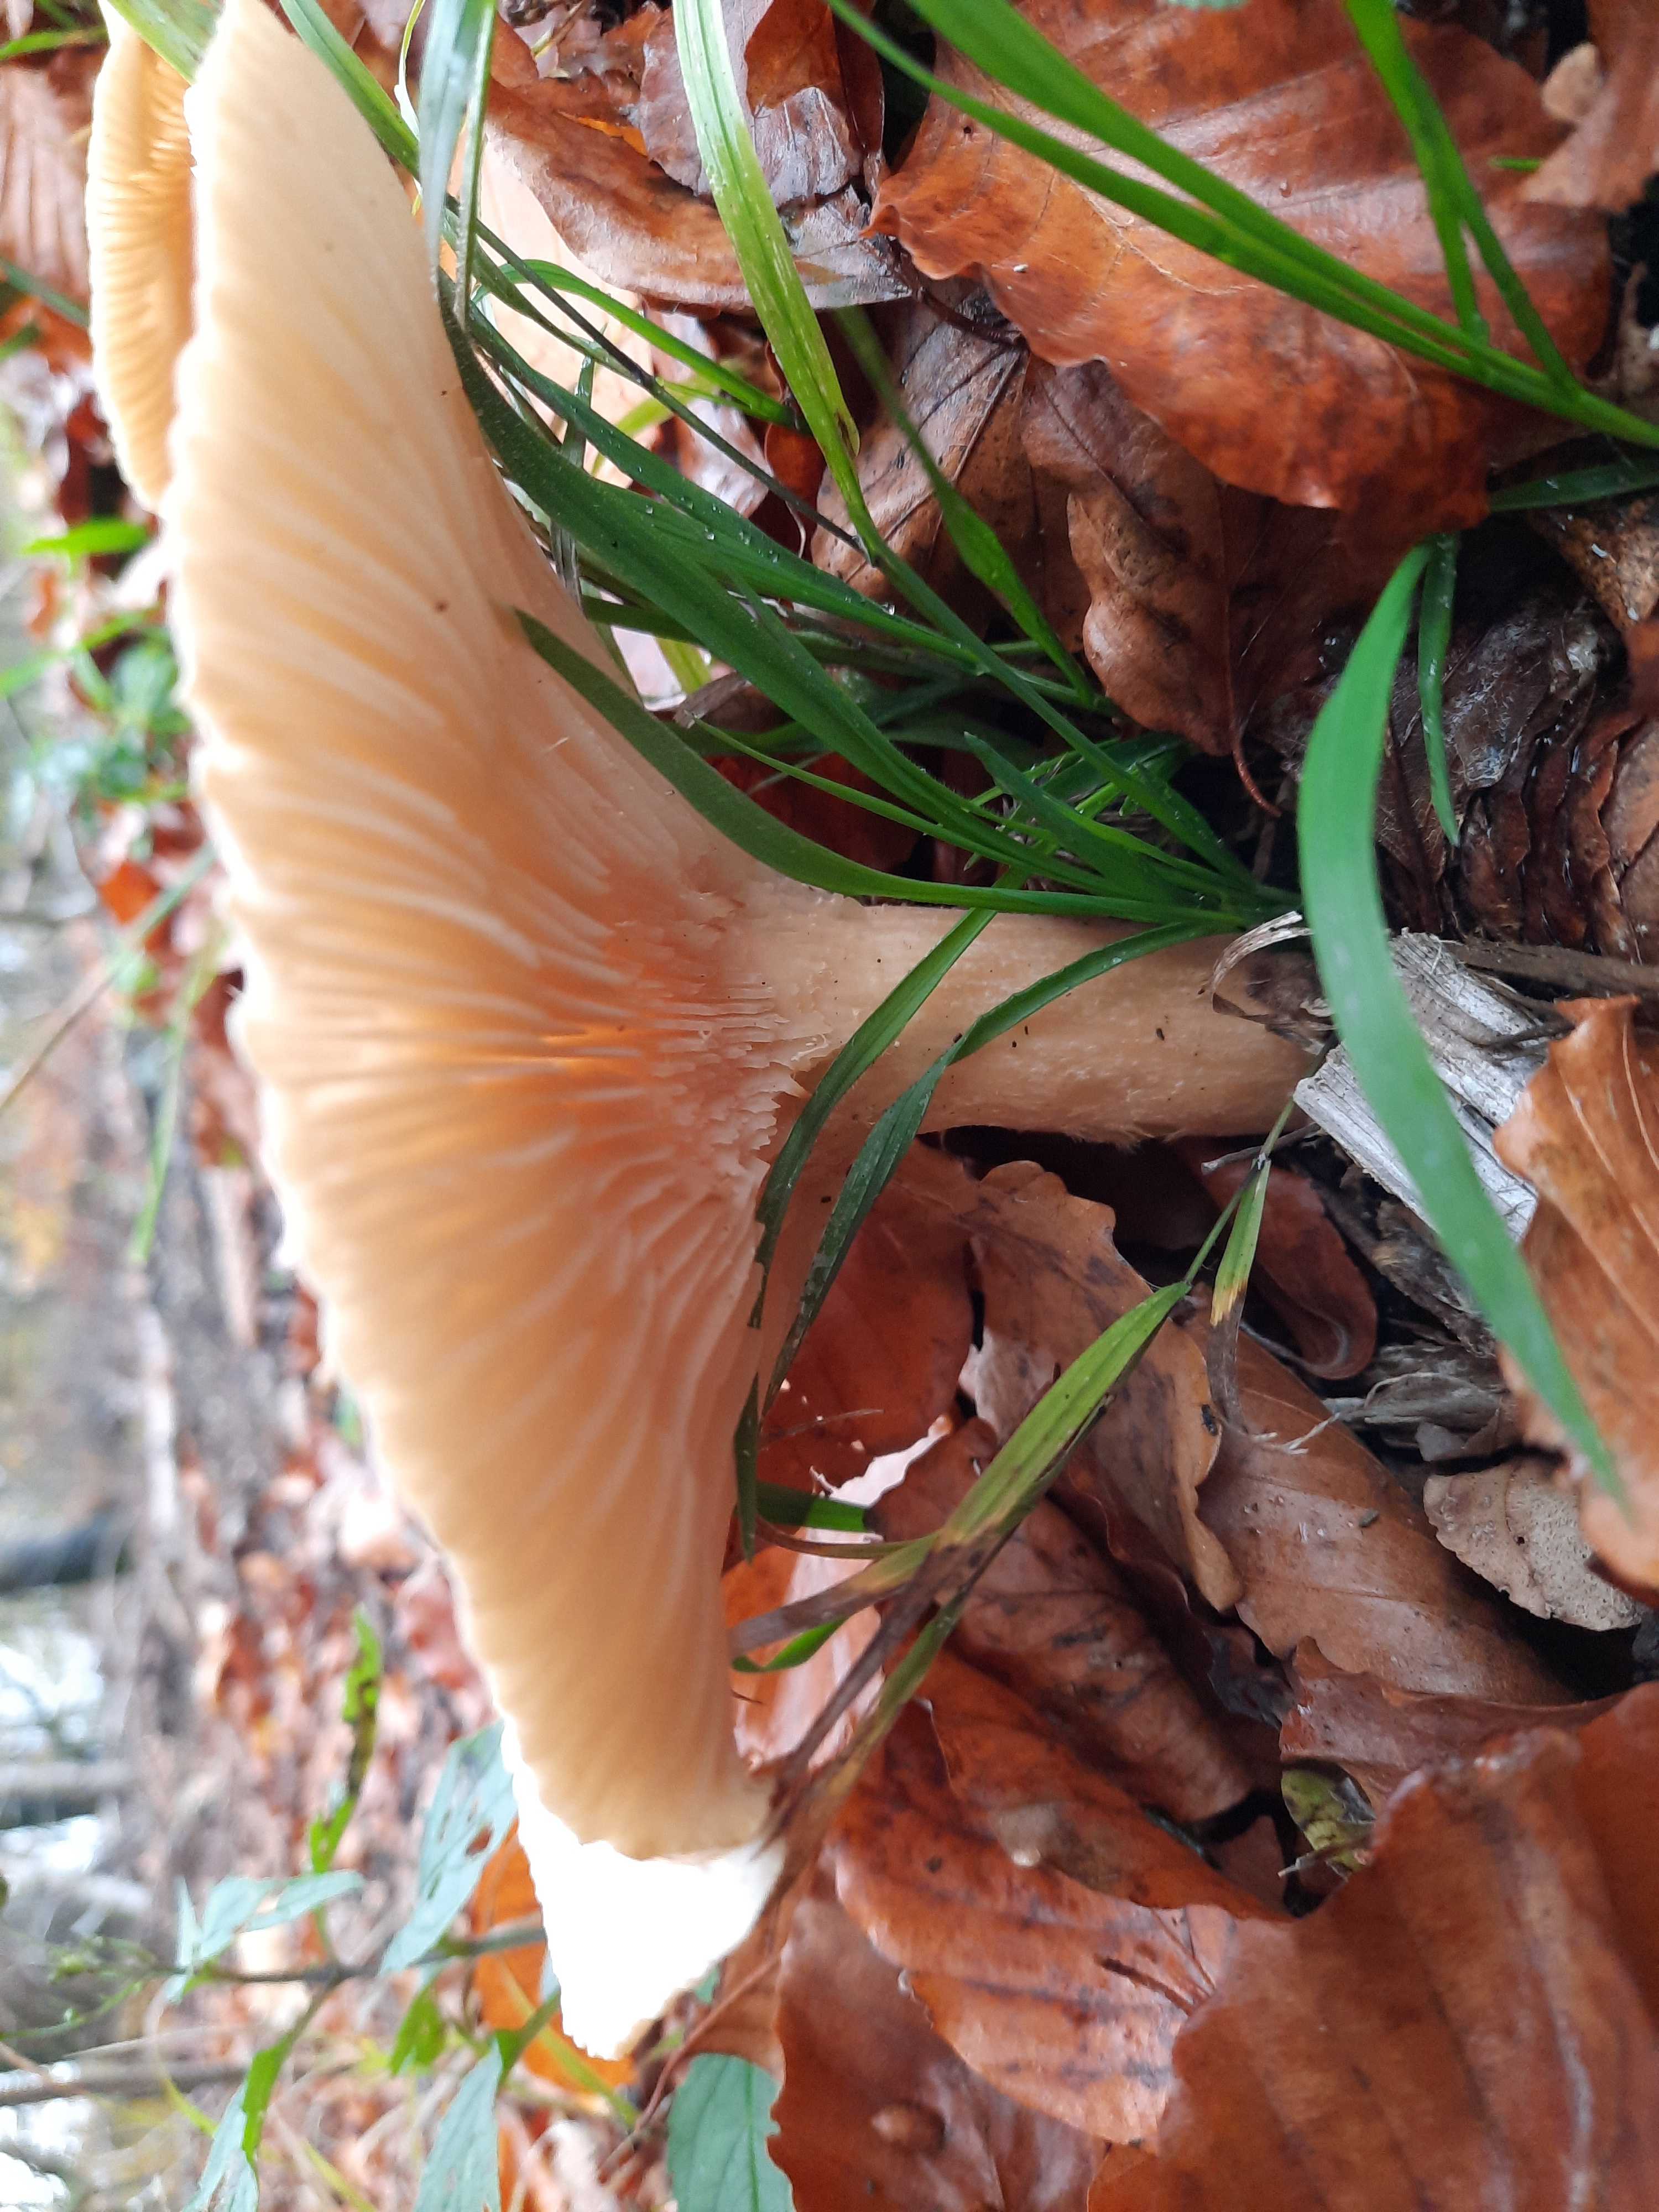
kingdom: Fungi
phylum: Basidiomycota
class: Agaricomycetes
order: Agaricales
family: Tricholomataceae
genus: Infundibulicybe
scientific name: Infundibulicybe geotropa
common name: stor tragthat
